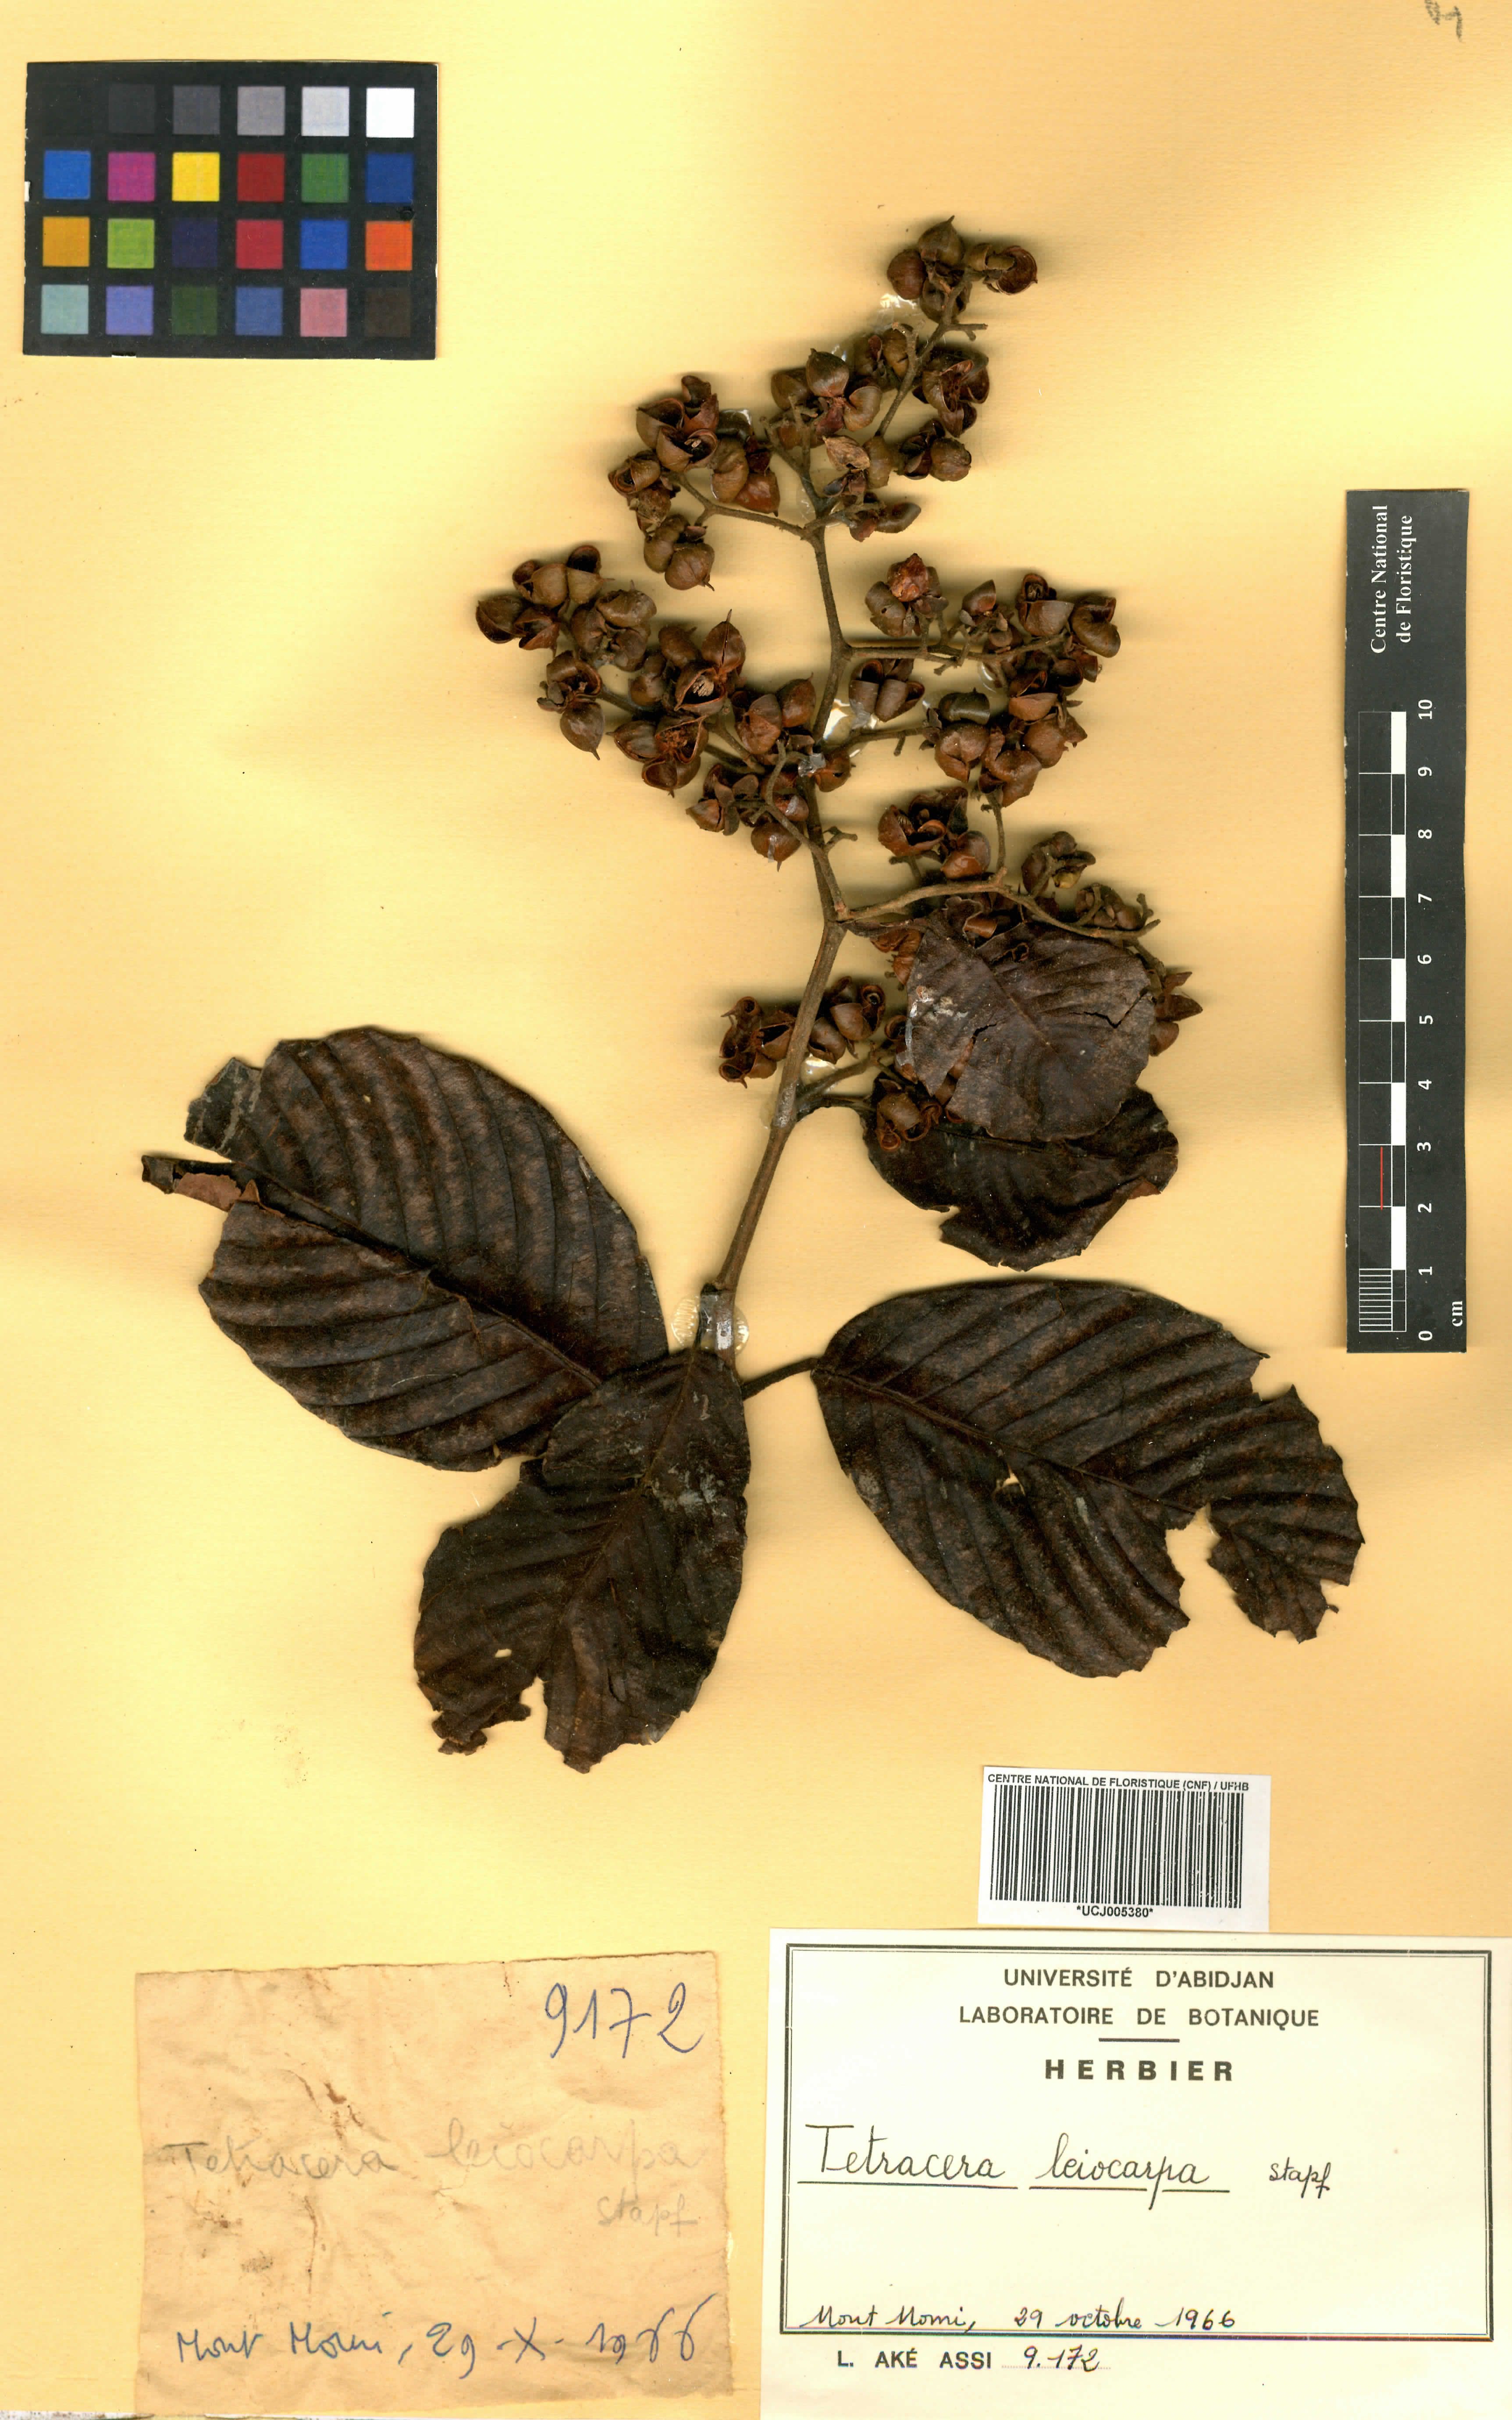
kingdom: Plantae
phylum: Tracheophyta
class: Magnoliopsida
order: Dilleniales
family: Dilleniaceae
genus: Tetracera
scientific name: Tetracera leiocarpa
